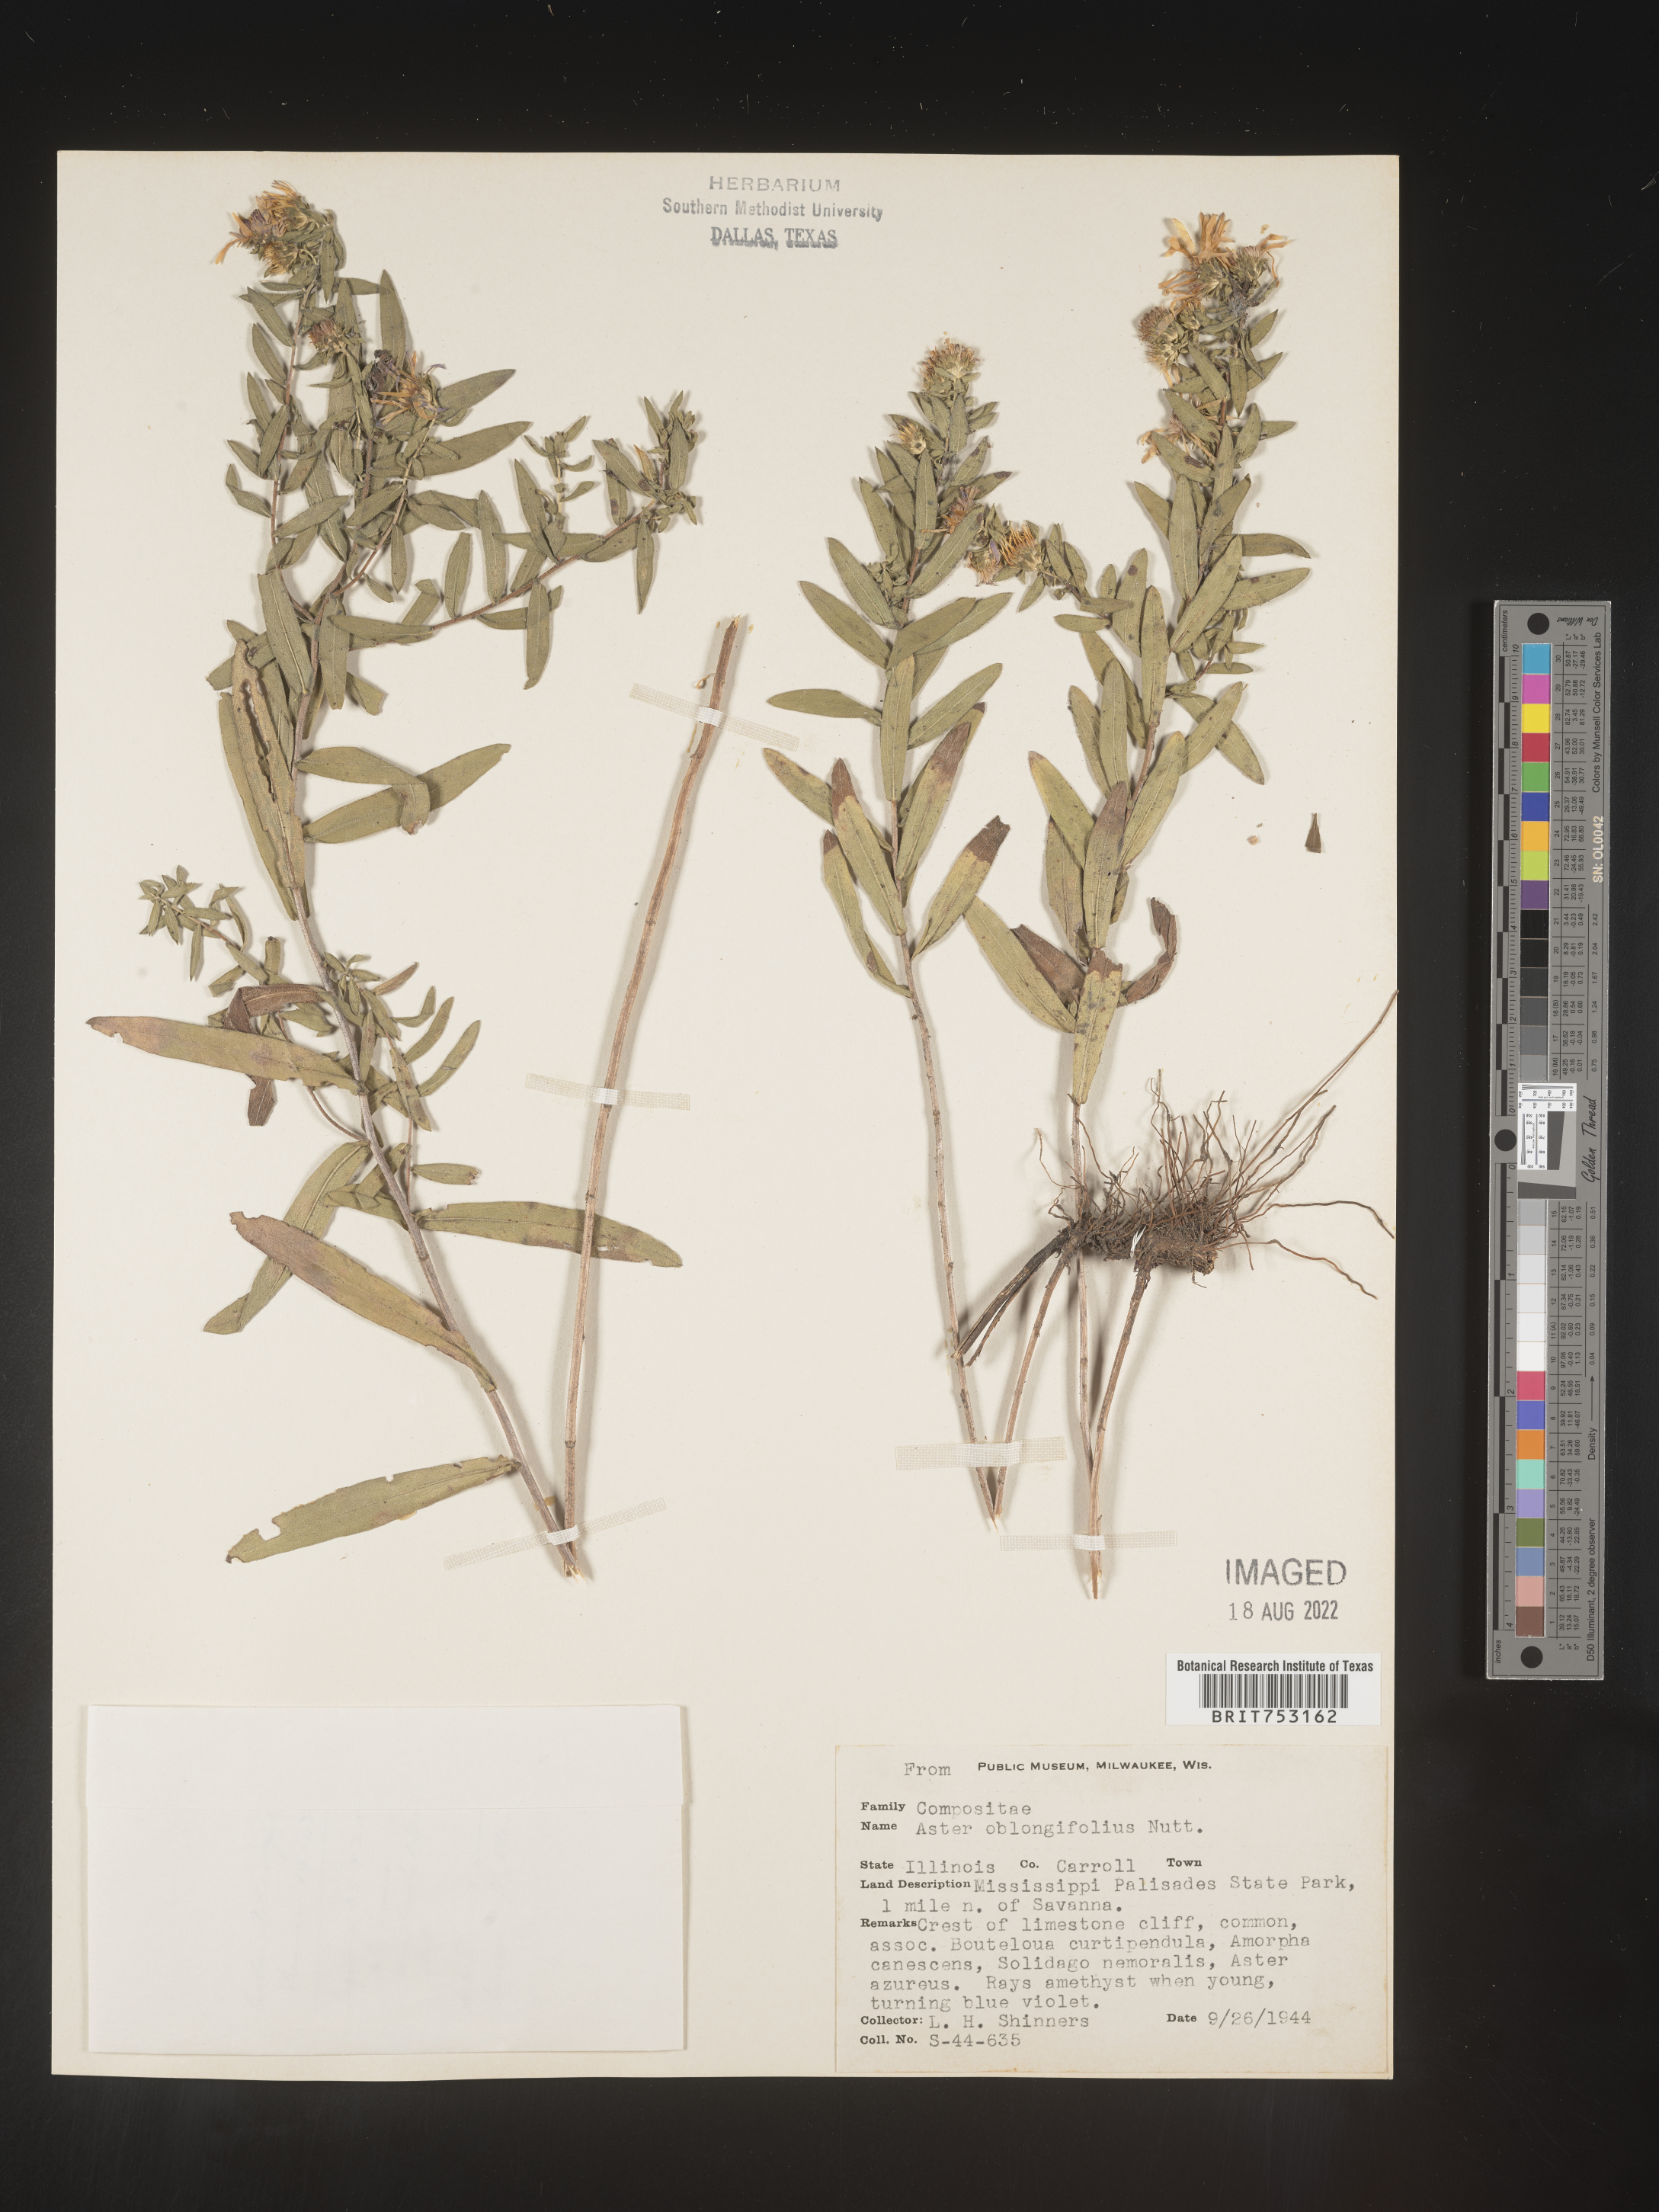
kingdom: Plantae
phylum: Tracheophyta
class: Magnoliopsida
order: Asterales
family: Asteraceae
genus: Symphyotrichum
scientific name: Symphyotrichum oblongifolium
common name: Aromatic aster
